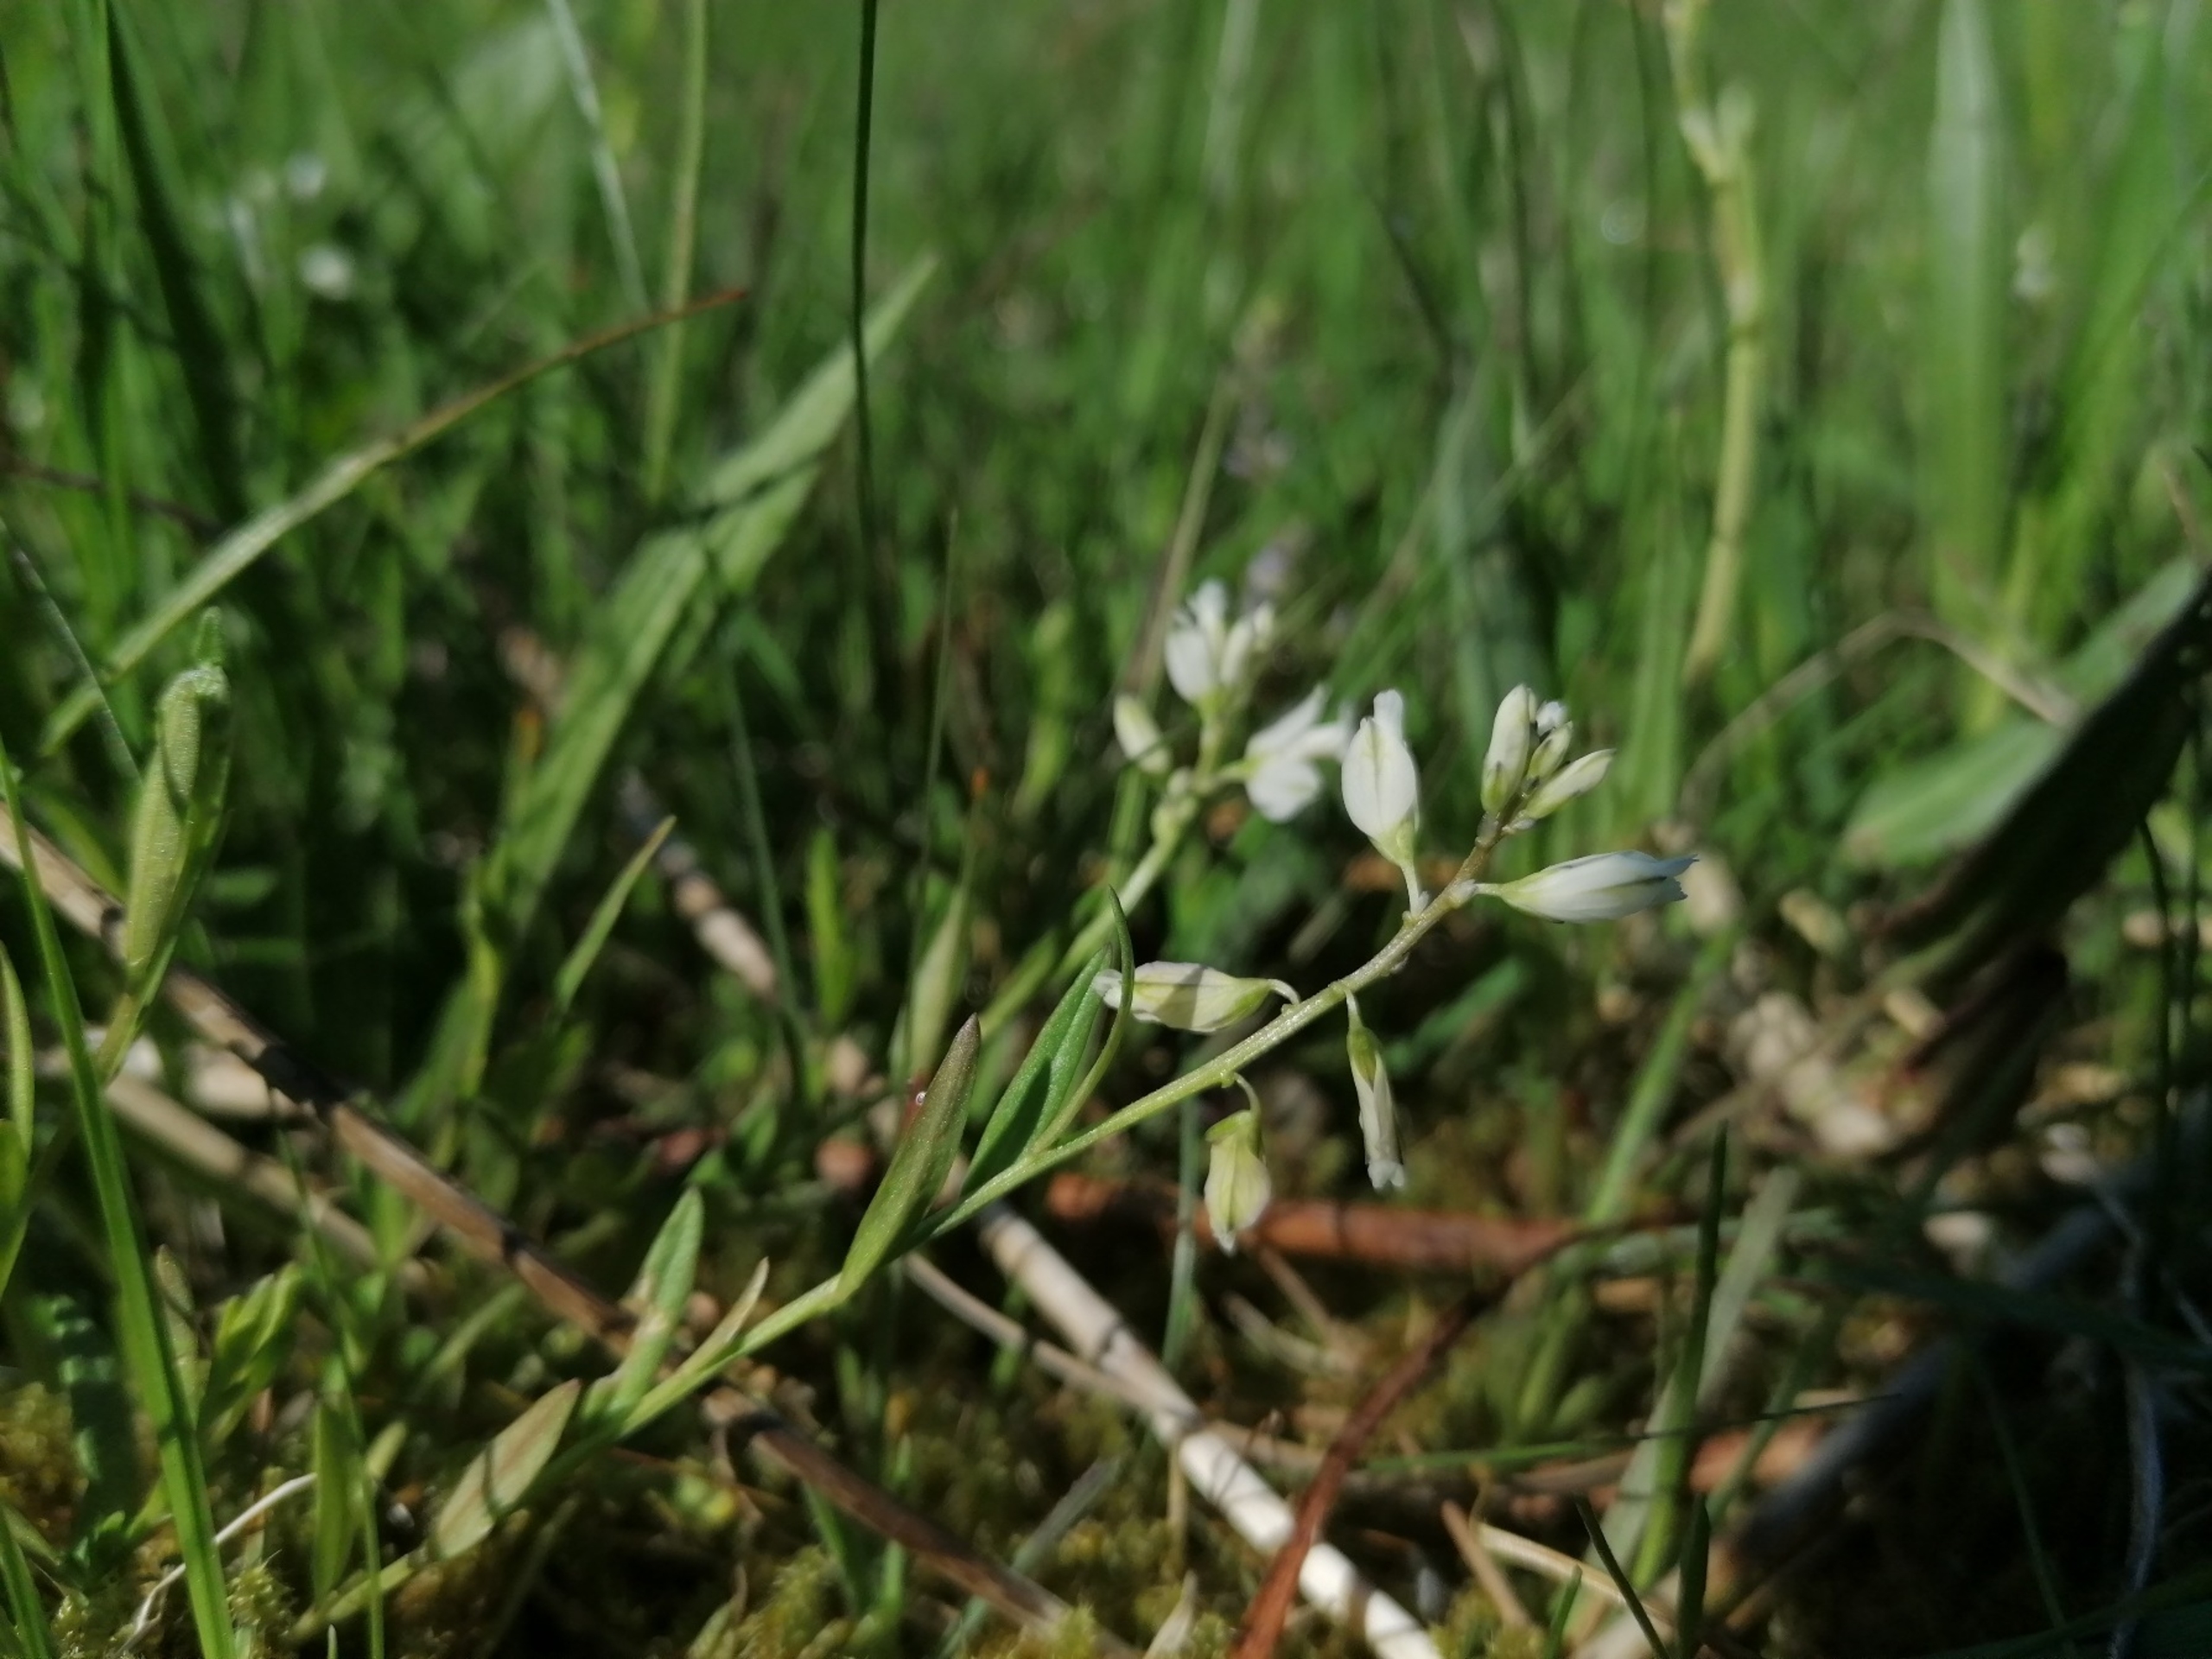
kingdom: Plantae
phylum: Tracheophyta
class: Magnoliopsida
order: Fabales
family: Polygalaceae
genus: Polygala
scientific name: Polygala vulgaris
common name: Almindelig mælkeurt
